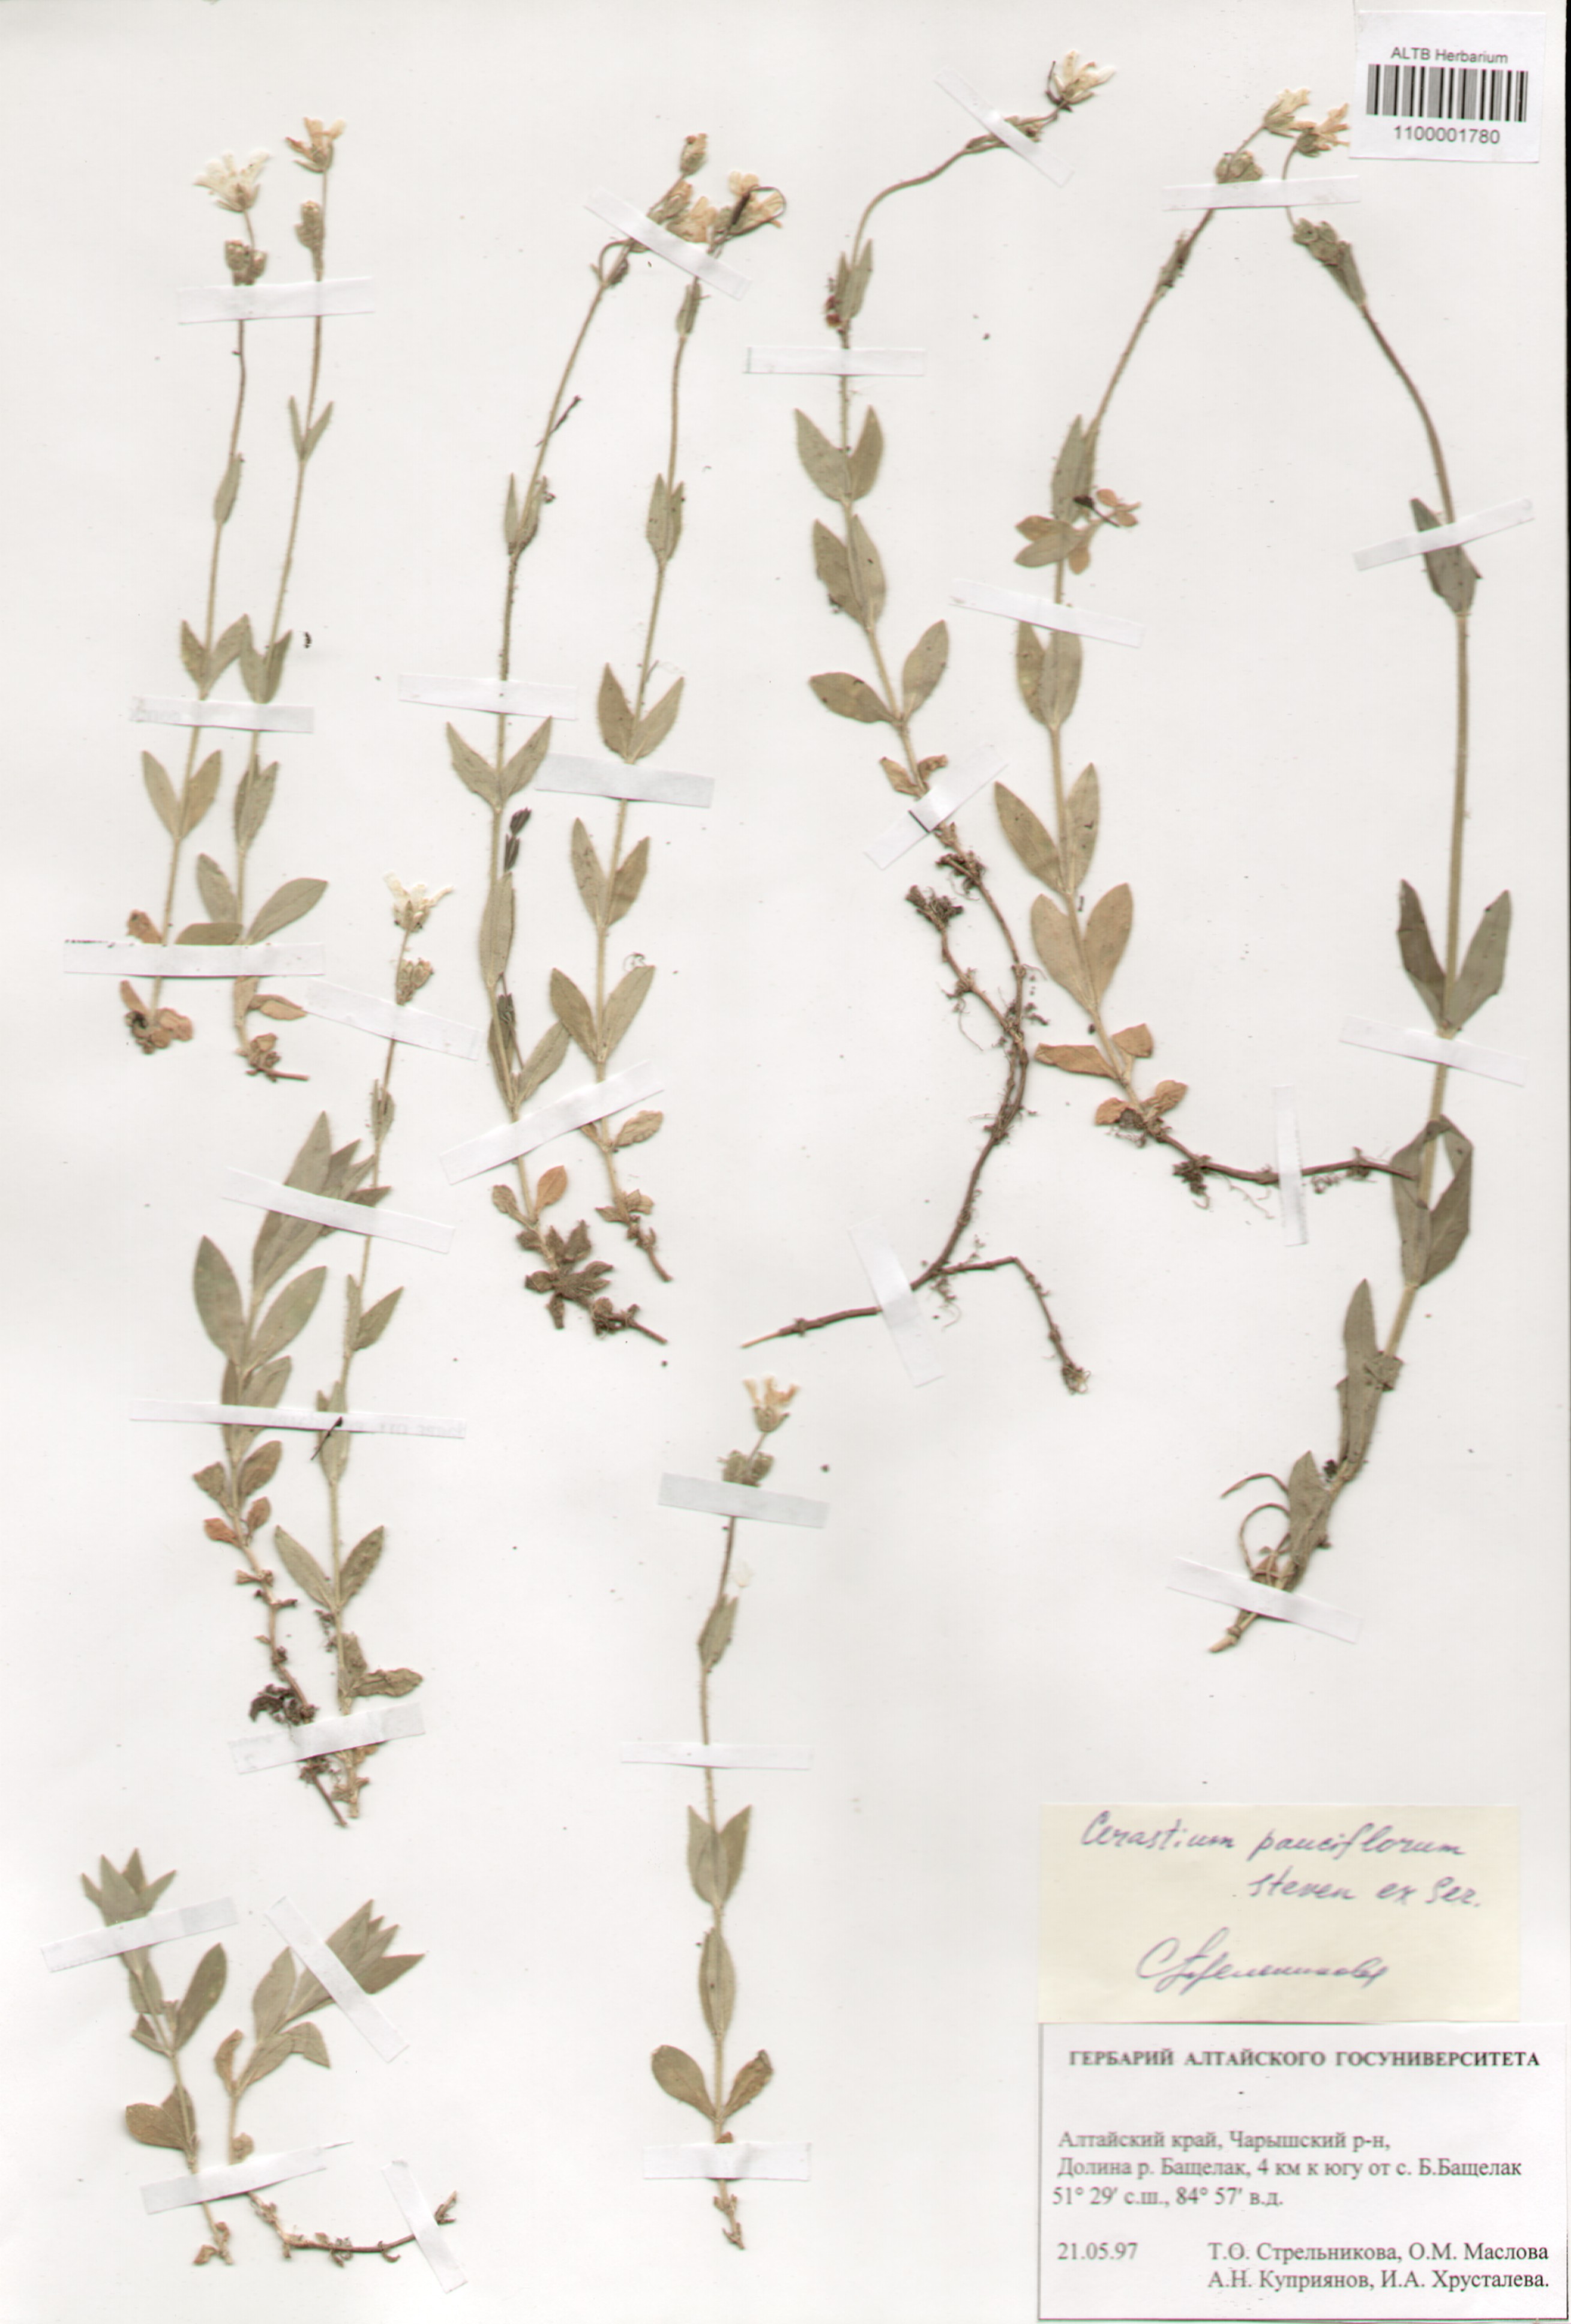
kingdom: Plantae
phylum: Tracheophyta
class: Magnoliopsida
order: Caryophyllales
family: Caryophyllaceae
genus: Cerastium
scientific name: Cerastium pauciflorum
